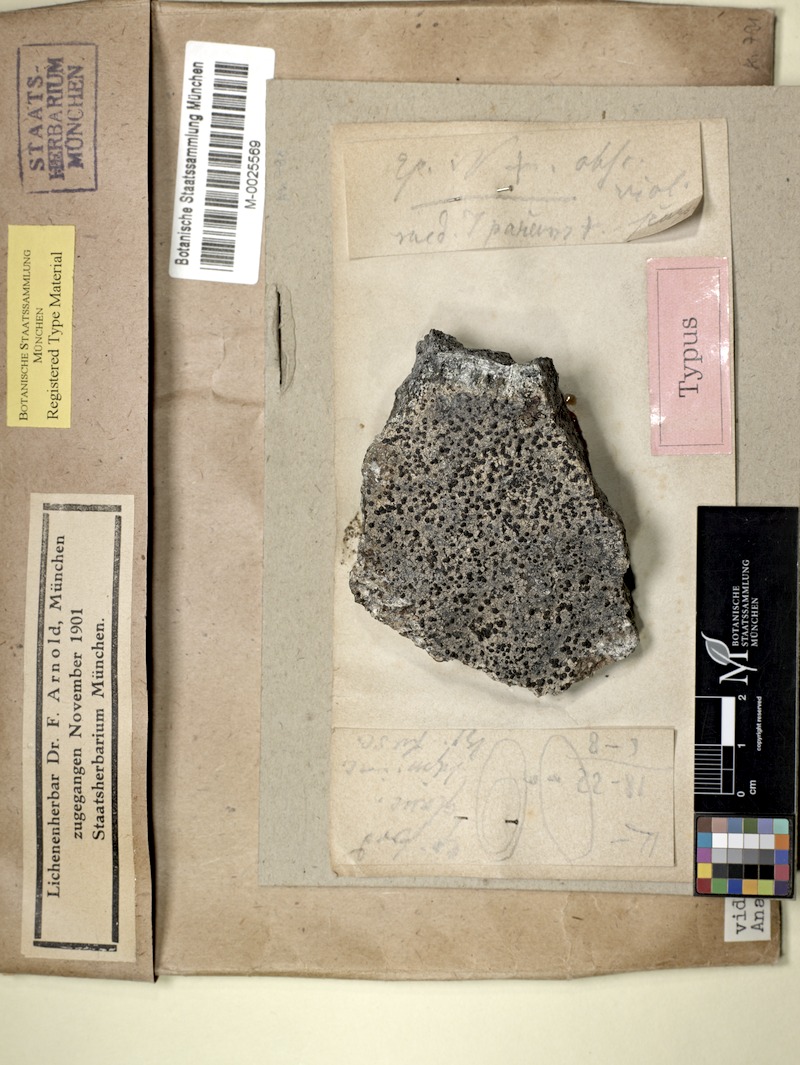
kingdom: Fungi
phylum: Ascomycota
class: Lecanoromycetes
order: Lecideales
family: Lecideaceae
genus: Porpidia
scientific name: Porpidia contraponenda
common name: Diverse porpidia lichen
